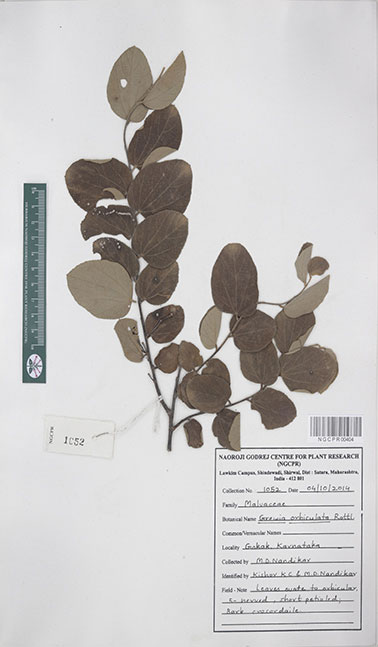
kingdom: Plantae
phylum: Tracheophyta
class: Magnoliopsida
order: Malvales
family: Malvaceae
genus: Grewia
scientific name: Grewia orbiculata
